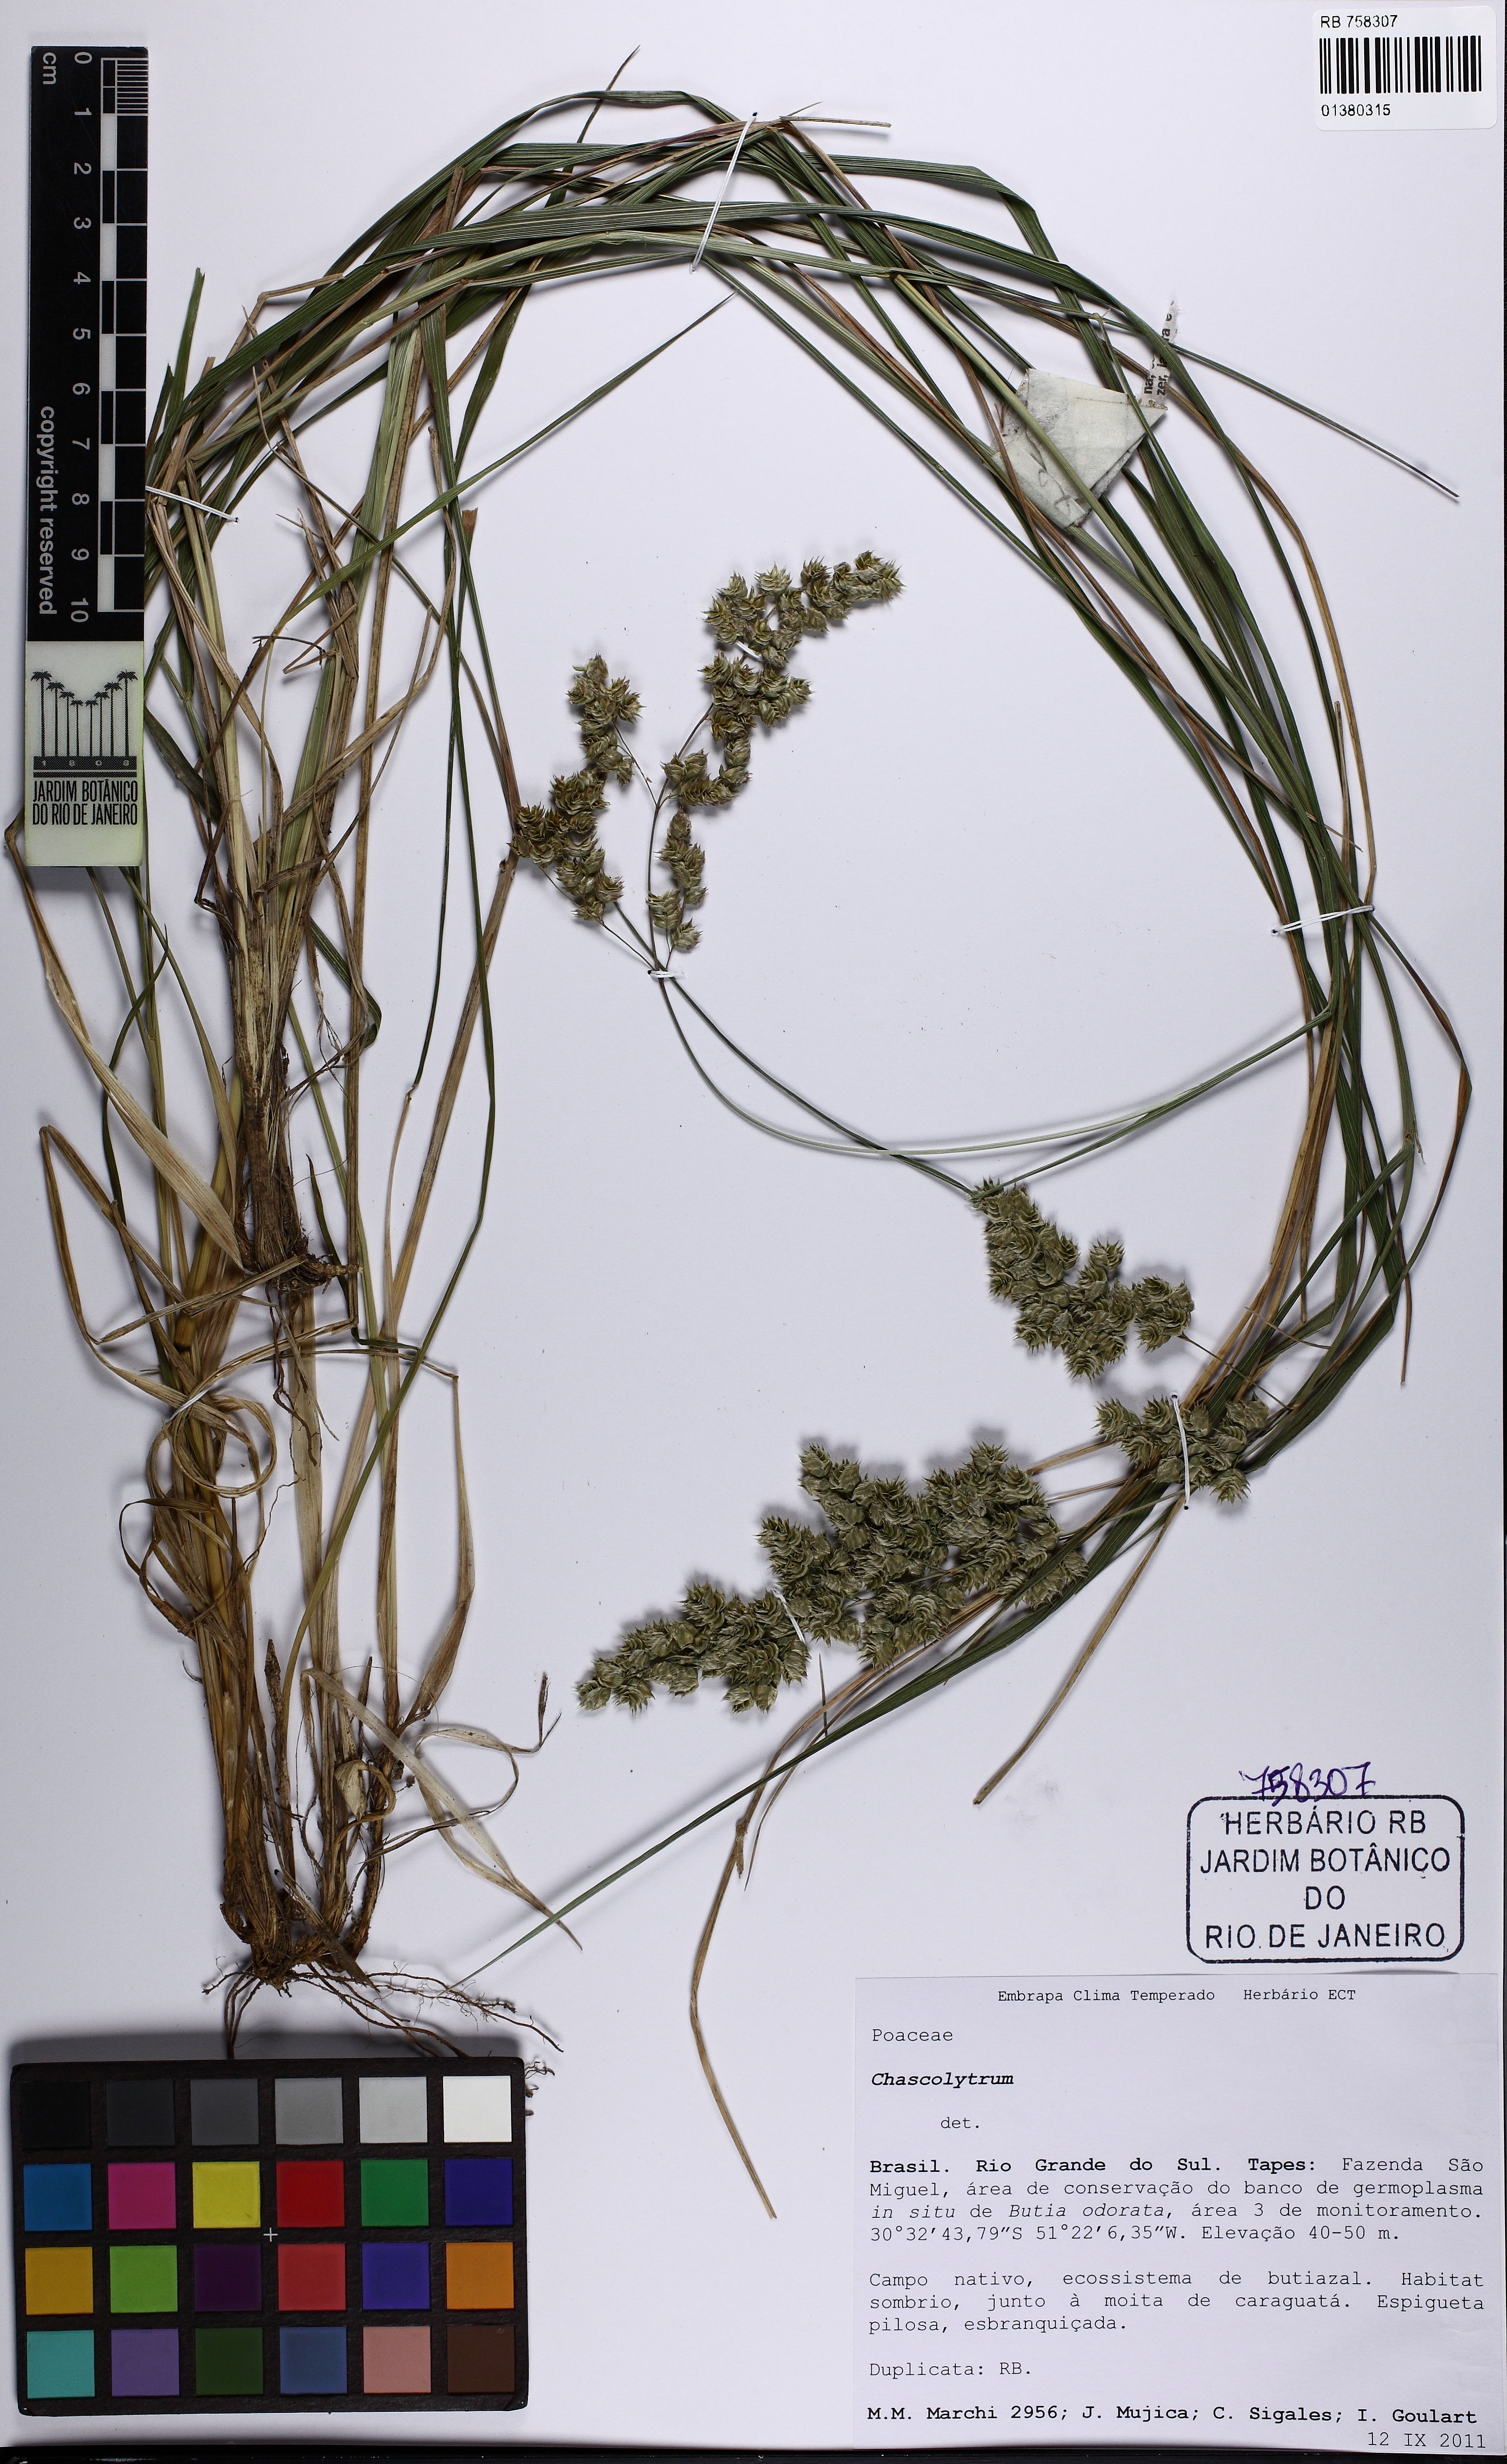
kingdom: Plantae
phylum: Tracheophyta
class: Liliopsida
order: Poales
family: Poaceae
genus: Chascolytrum
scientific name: Chascolytrum
